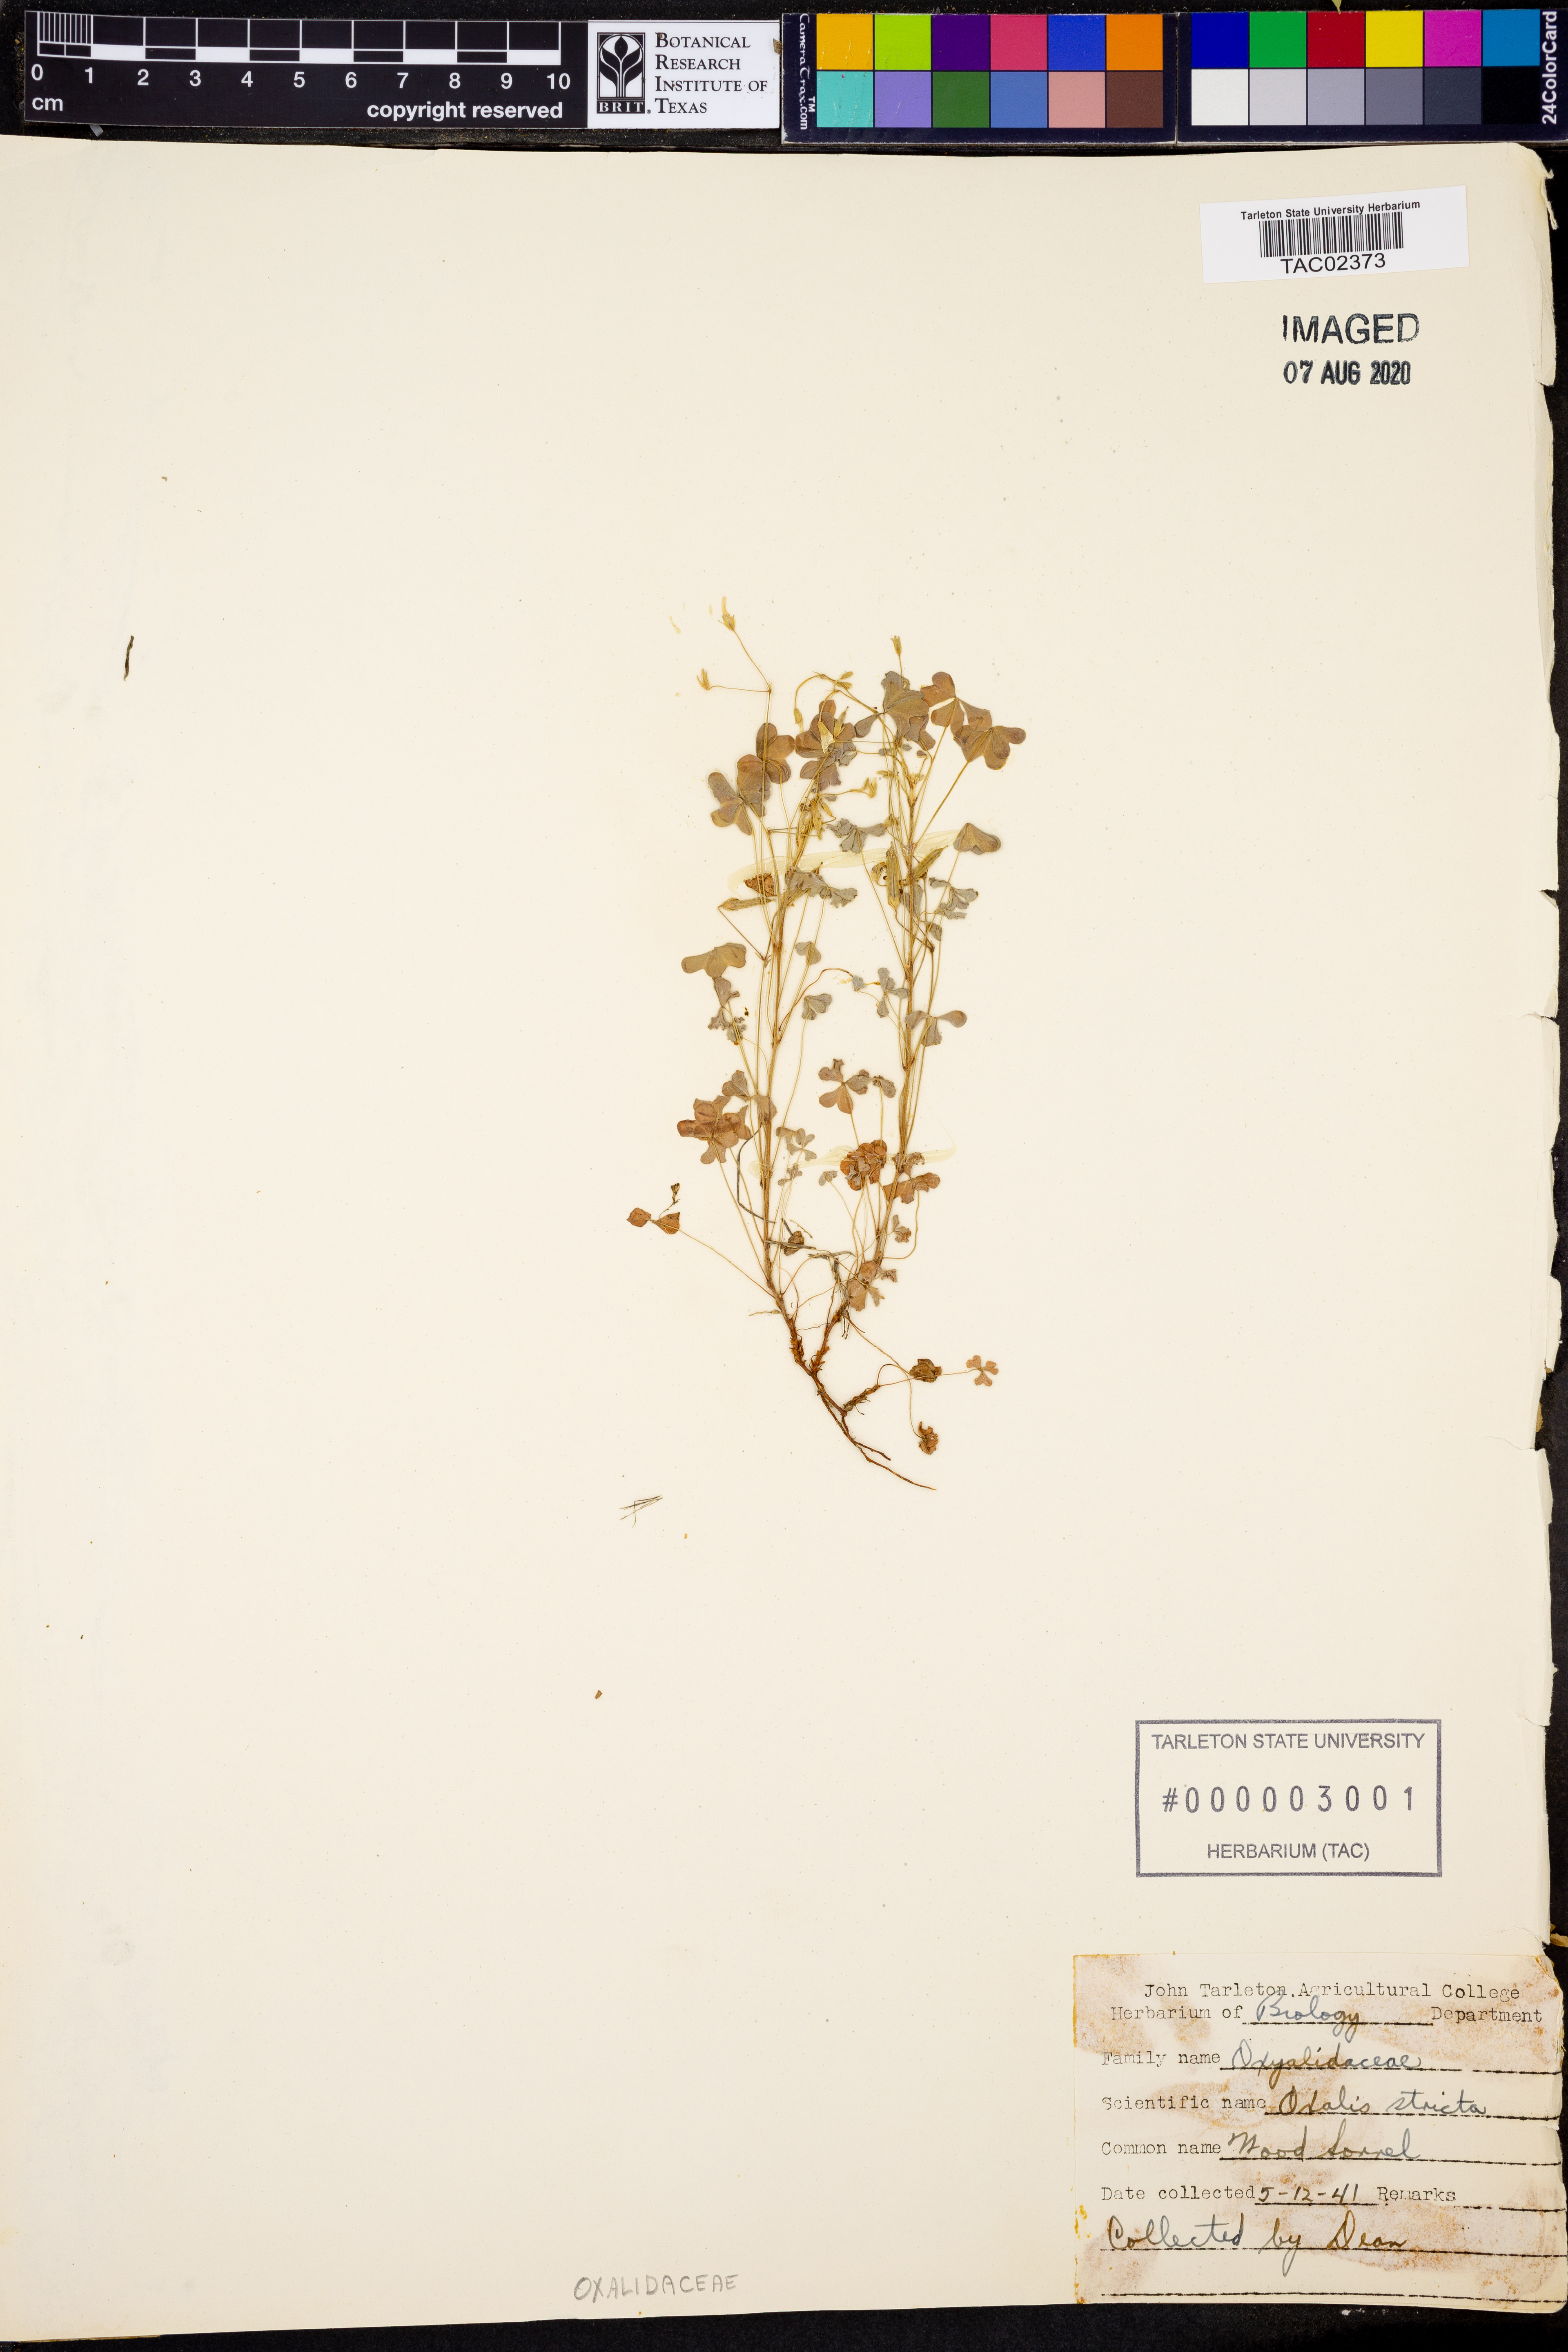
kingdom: Plantae
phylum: Tracheophyta
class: Magnoliopsida
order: Oxalidales
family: Oxalidaceae
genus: Oxalis
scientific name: Oxalis stricta
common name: Upright yellow-sorrel
